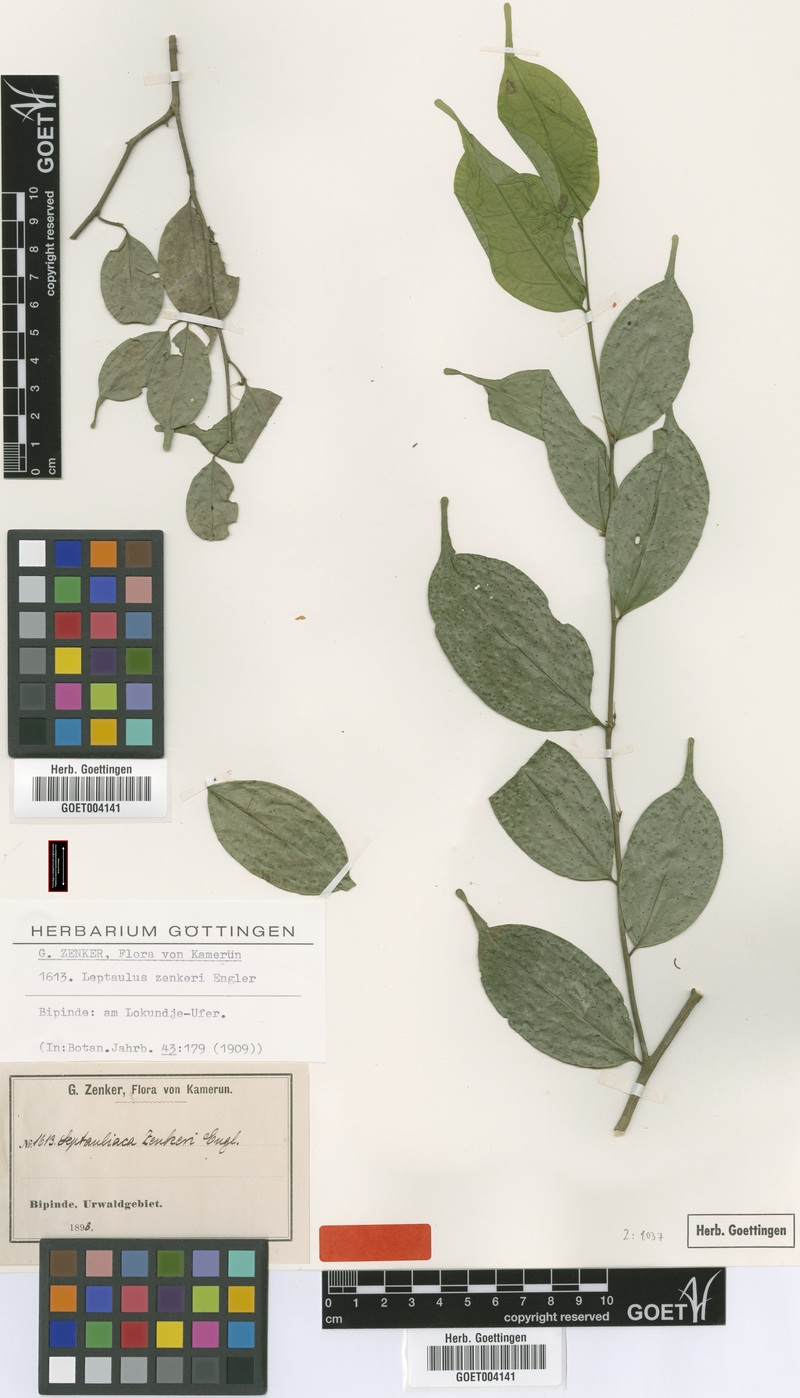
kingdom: Plantae
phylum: Tracheophyta
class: Magnoliopsida
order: Cardiopteridales
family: Cardiopteridaceae
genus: Leptaulus
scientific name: Leptaulus congolanus
